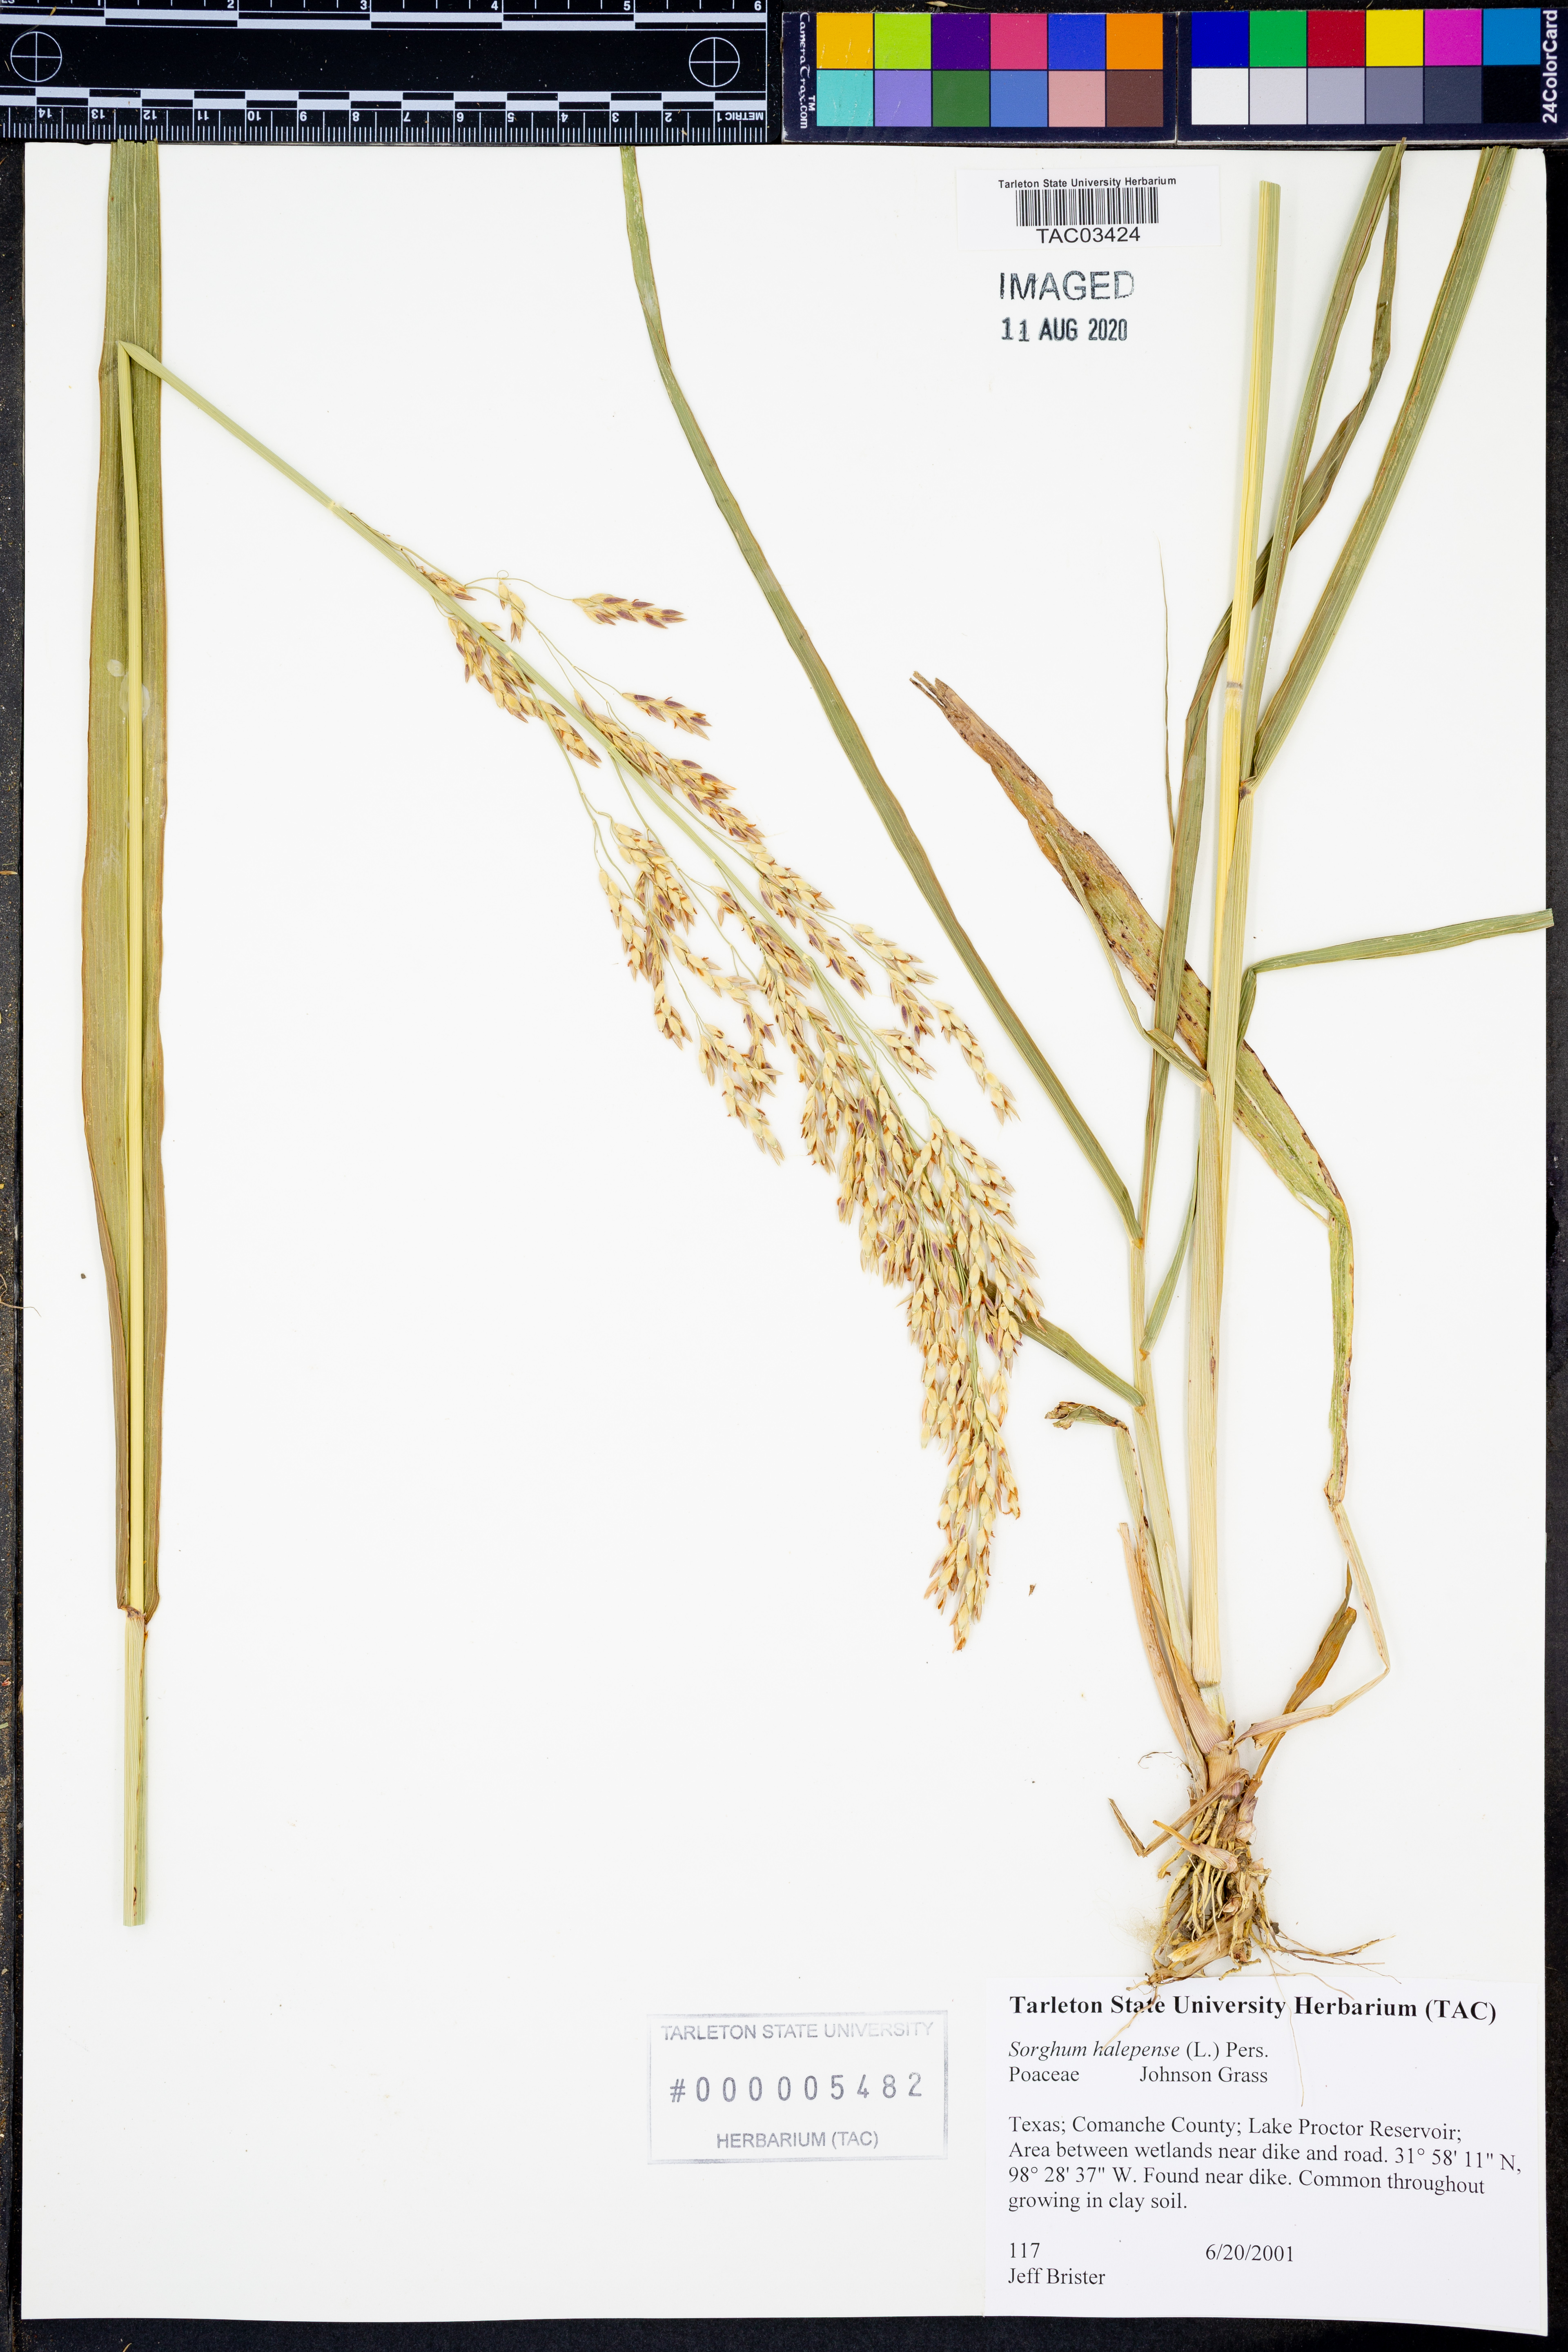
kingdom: Plantae
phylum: Tracheophyta
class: Liliopsida
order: Poales
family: Poaceae
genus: Sorghum
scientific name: Sorghum halepense
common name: Johnson-grass
